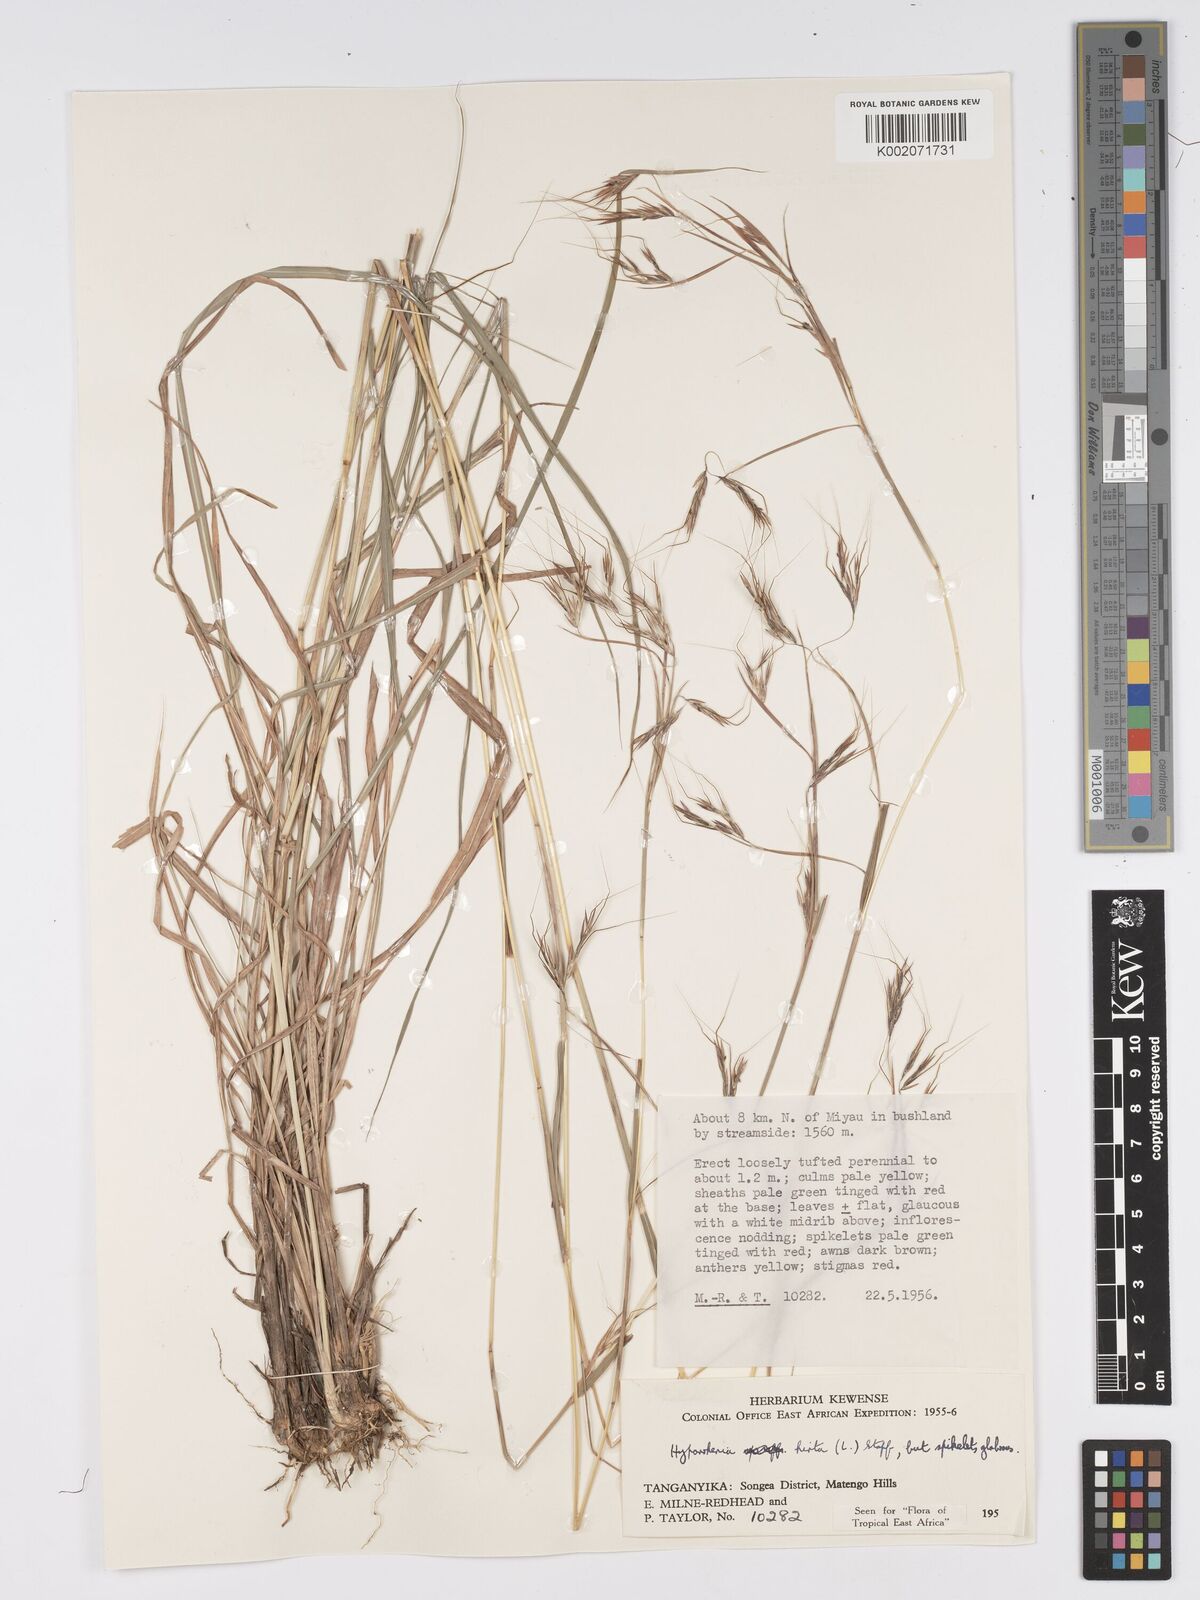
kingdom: Plantae
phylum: Tracheophyta
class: Liliopsida
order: Poales
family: Poaceae
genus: Hyparrhenia
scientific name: Hyparrhenia hirta
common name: Thatching grass
